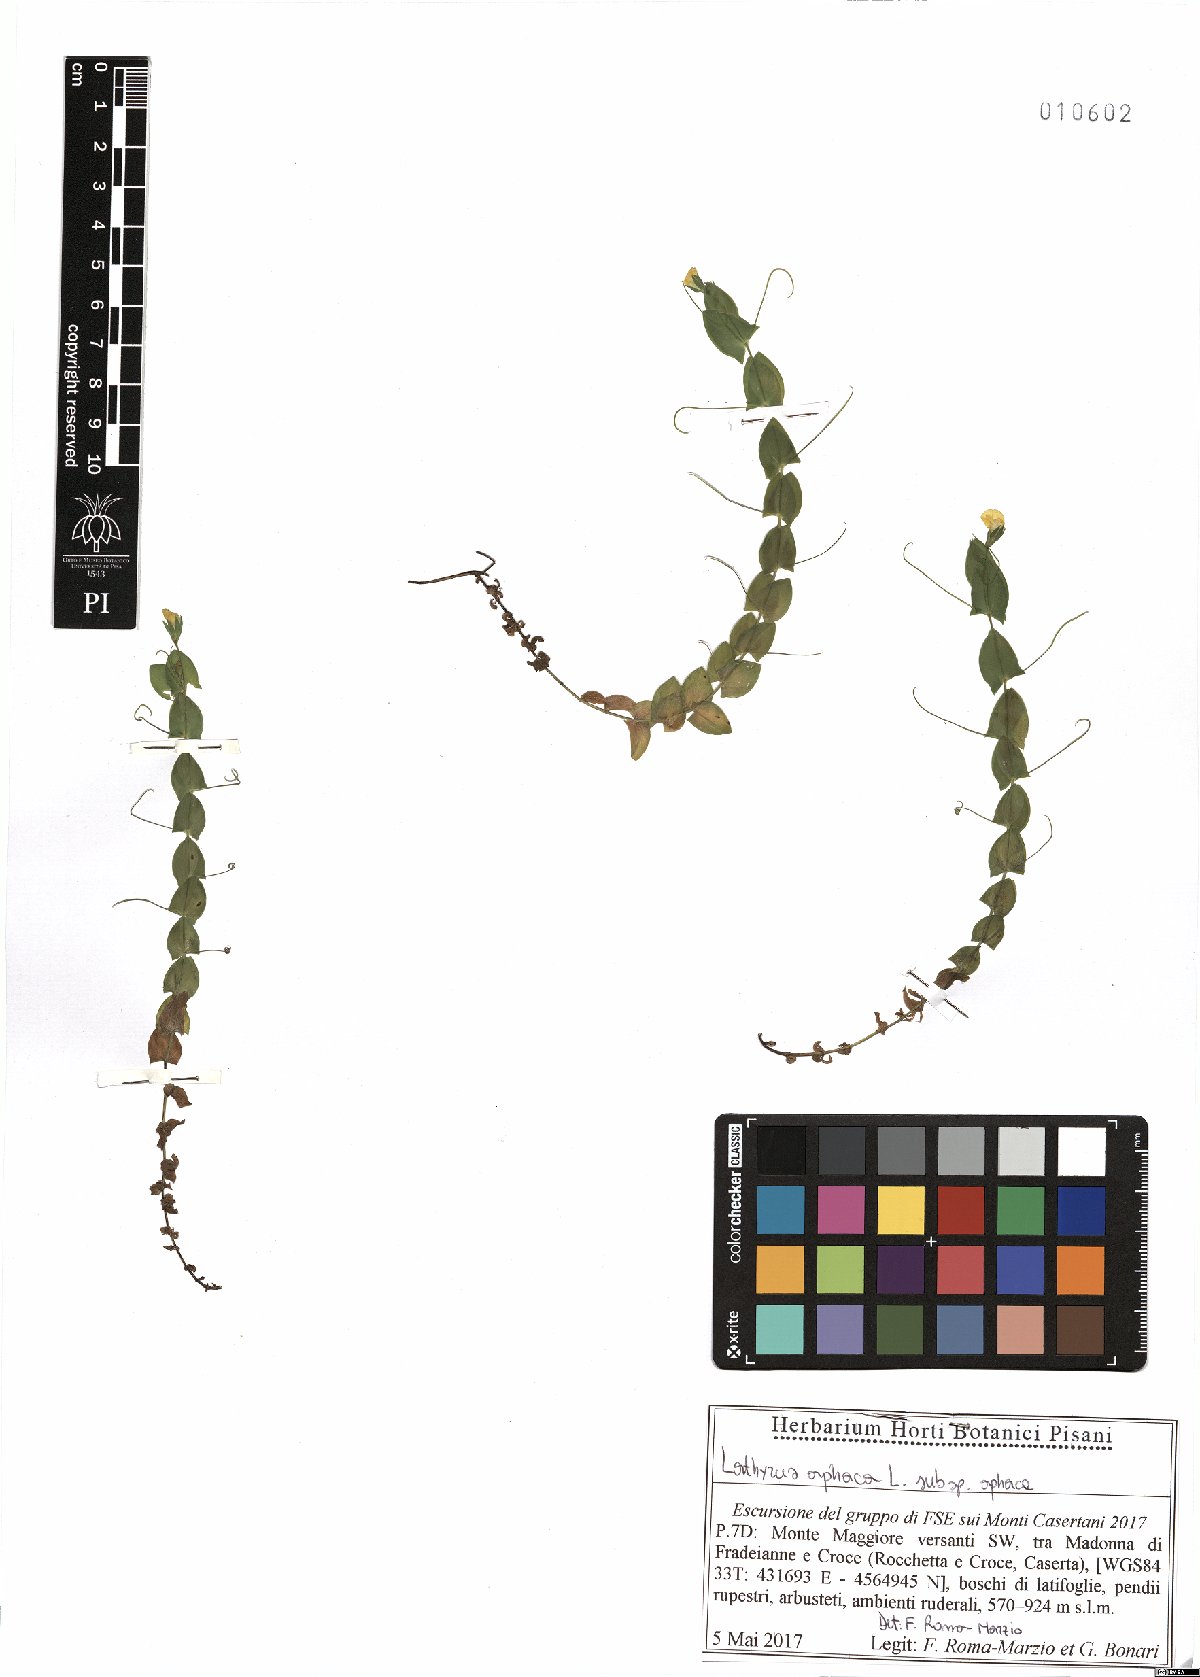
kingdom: Plantae
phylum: Tracheophyta
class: Magnoliopsida
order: Fabales
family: Fabaceae
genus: Lathyrus
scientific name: Lathyrus aphaca
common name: Yellow vetchling
